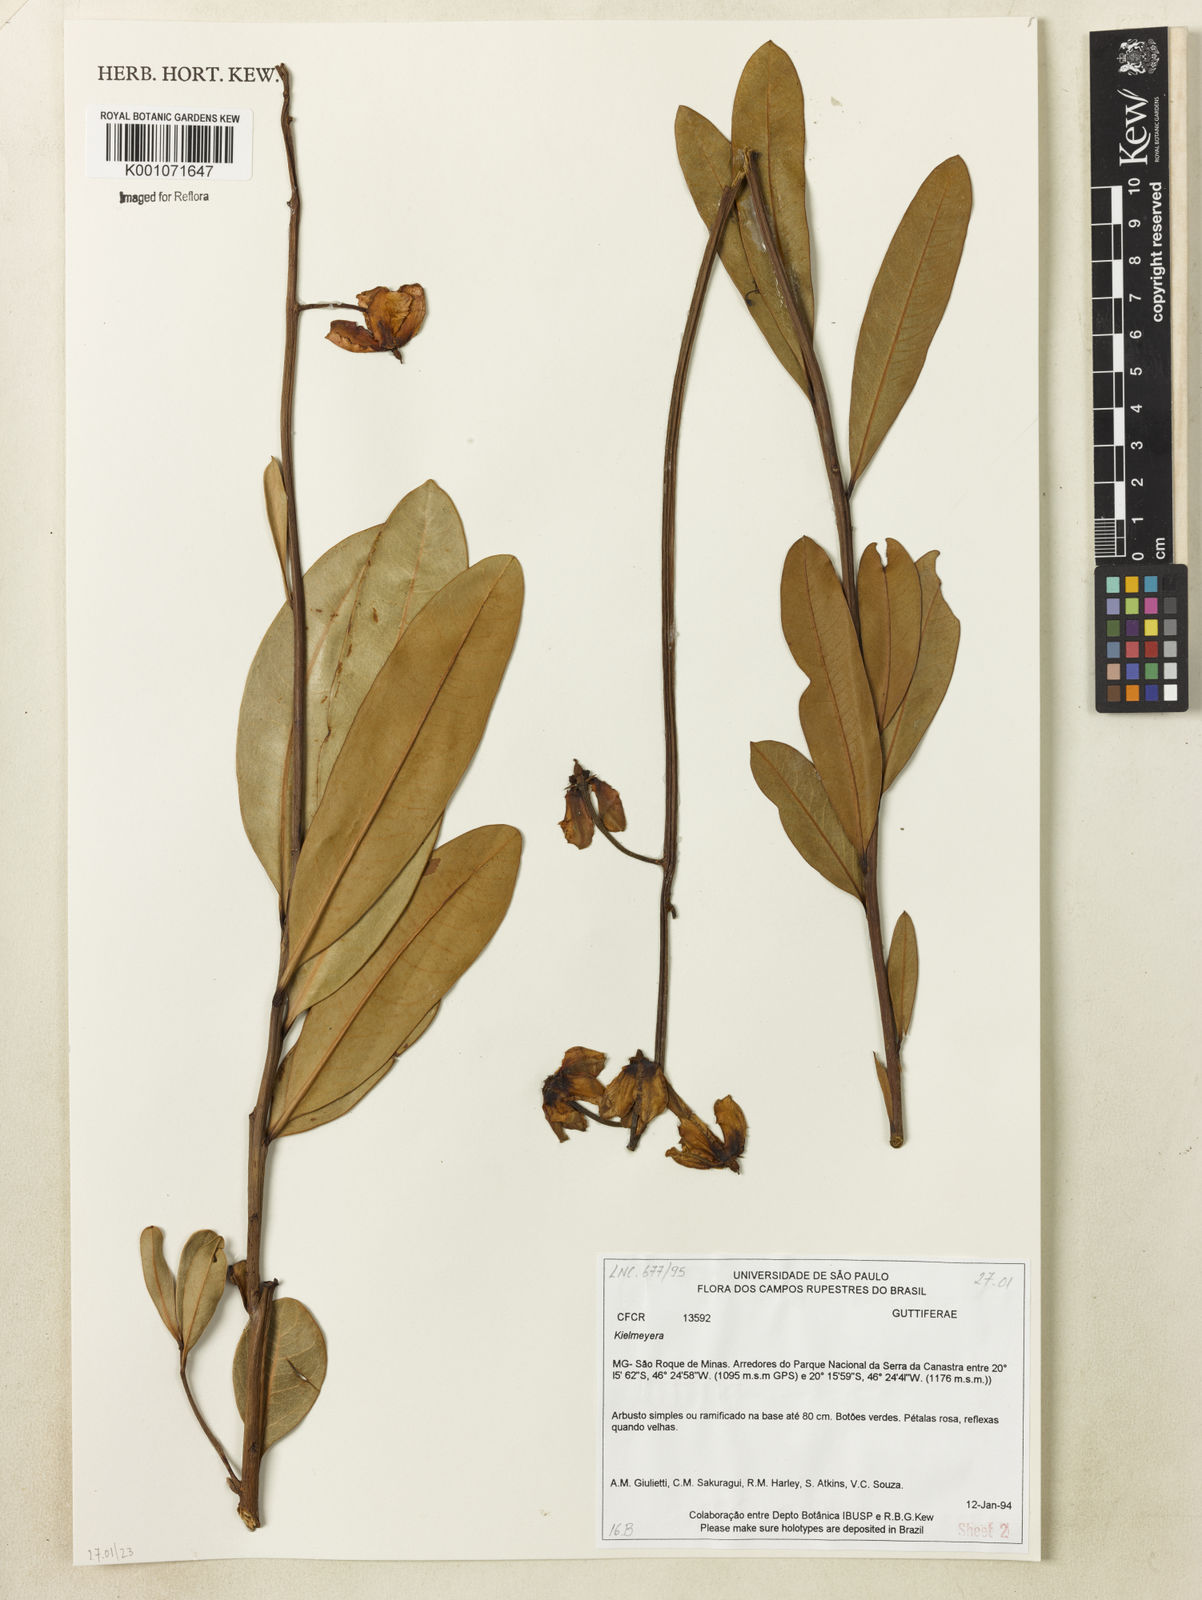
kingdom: Plantae
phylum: Tracheophyta
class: Magnoliopsida
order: Malpighiales
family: Calophyllaceae
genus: Kielmeyera
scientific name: Kielmeyera pumila
